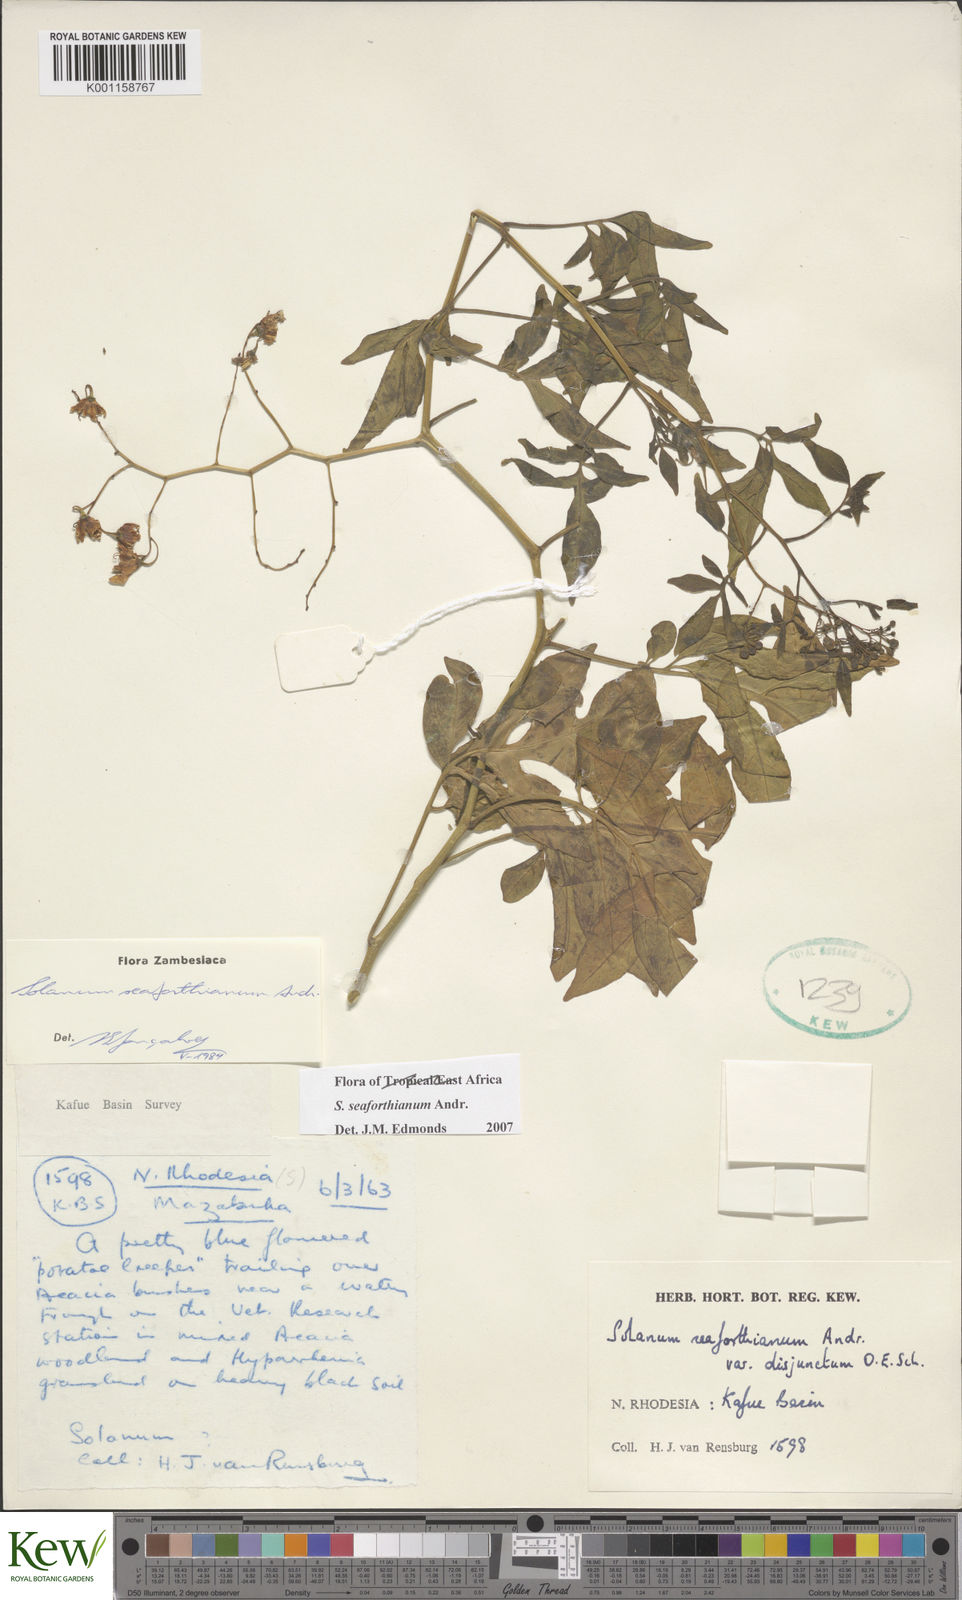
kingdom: Plantae
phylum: Tracheophyta
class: Magnoliopsida
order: Solanales
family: Solanaceae
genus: Solanum
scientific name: Solanum seaforthianum
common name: Brazilian nightshade
